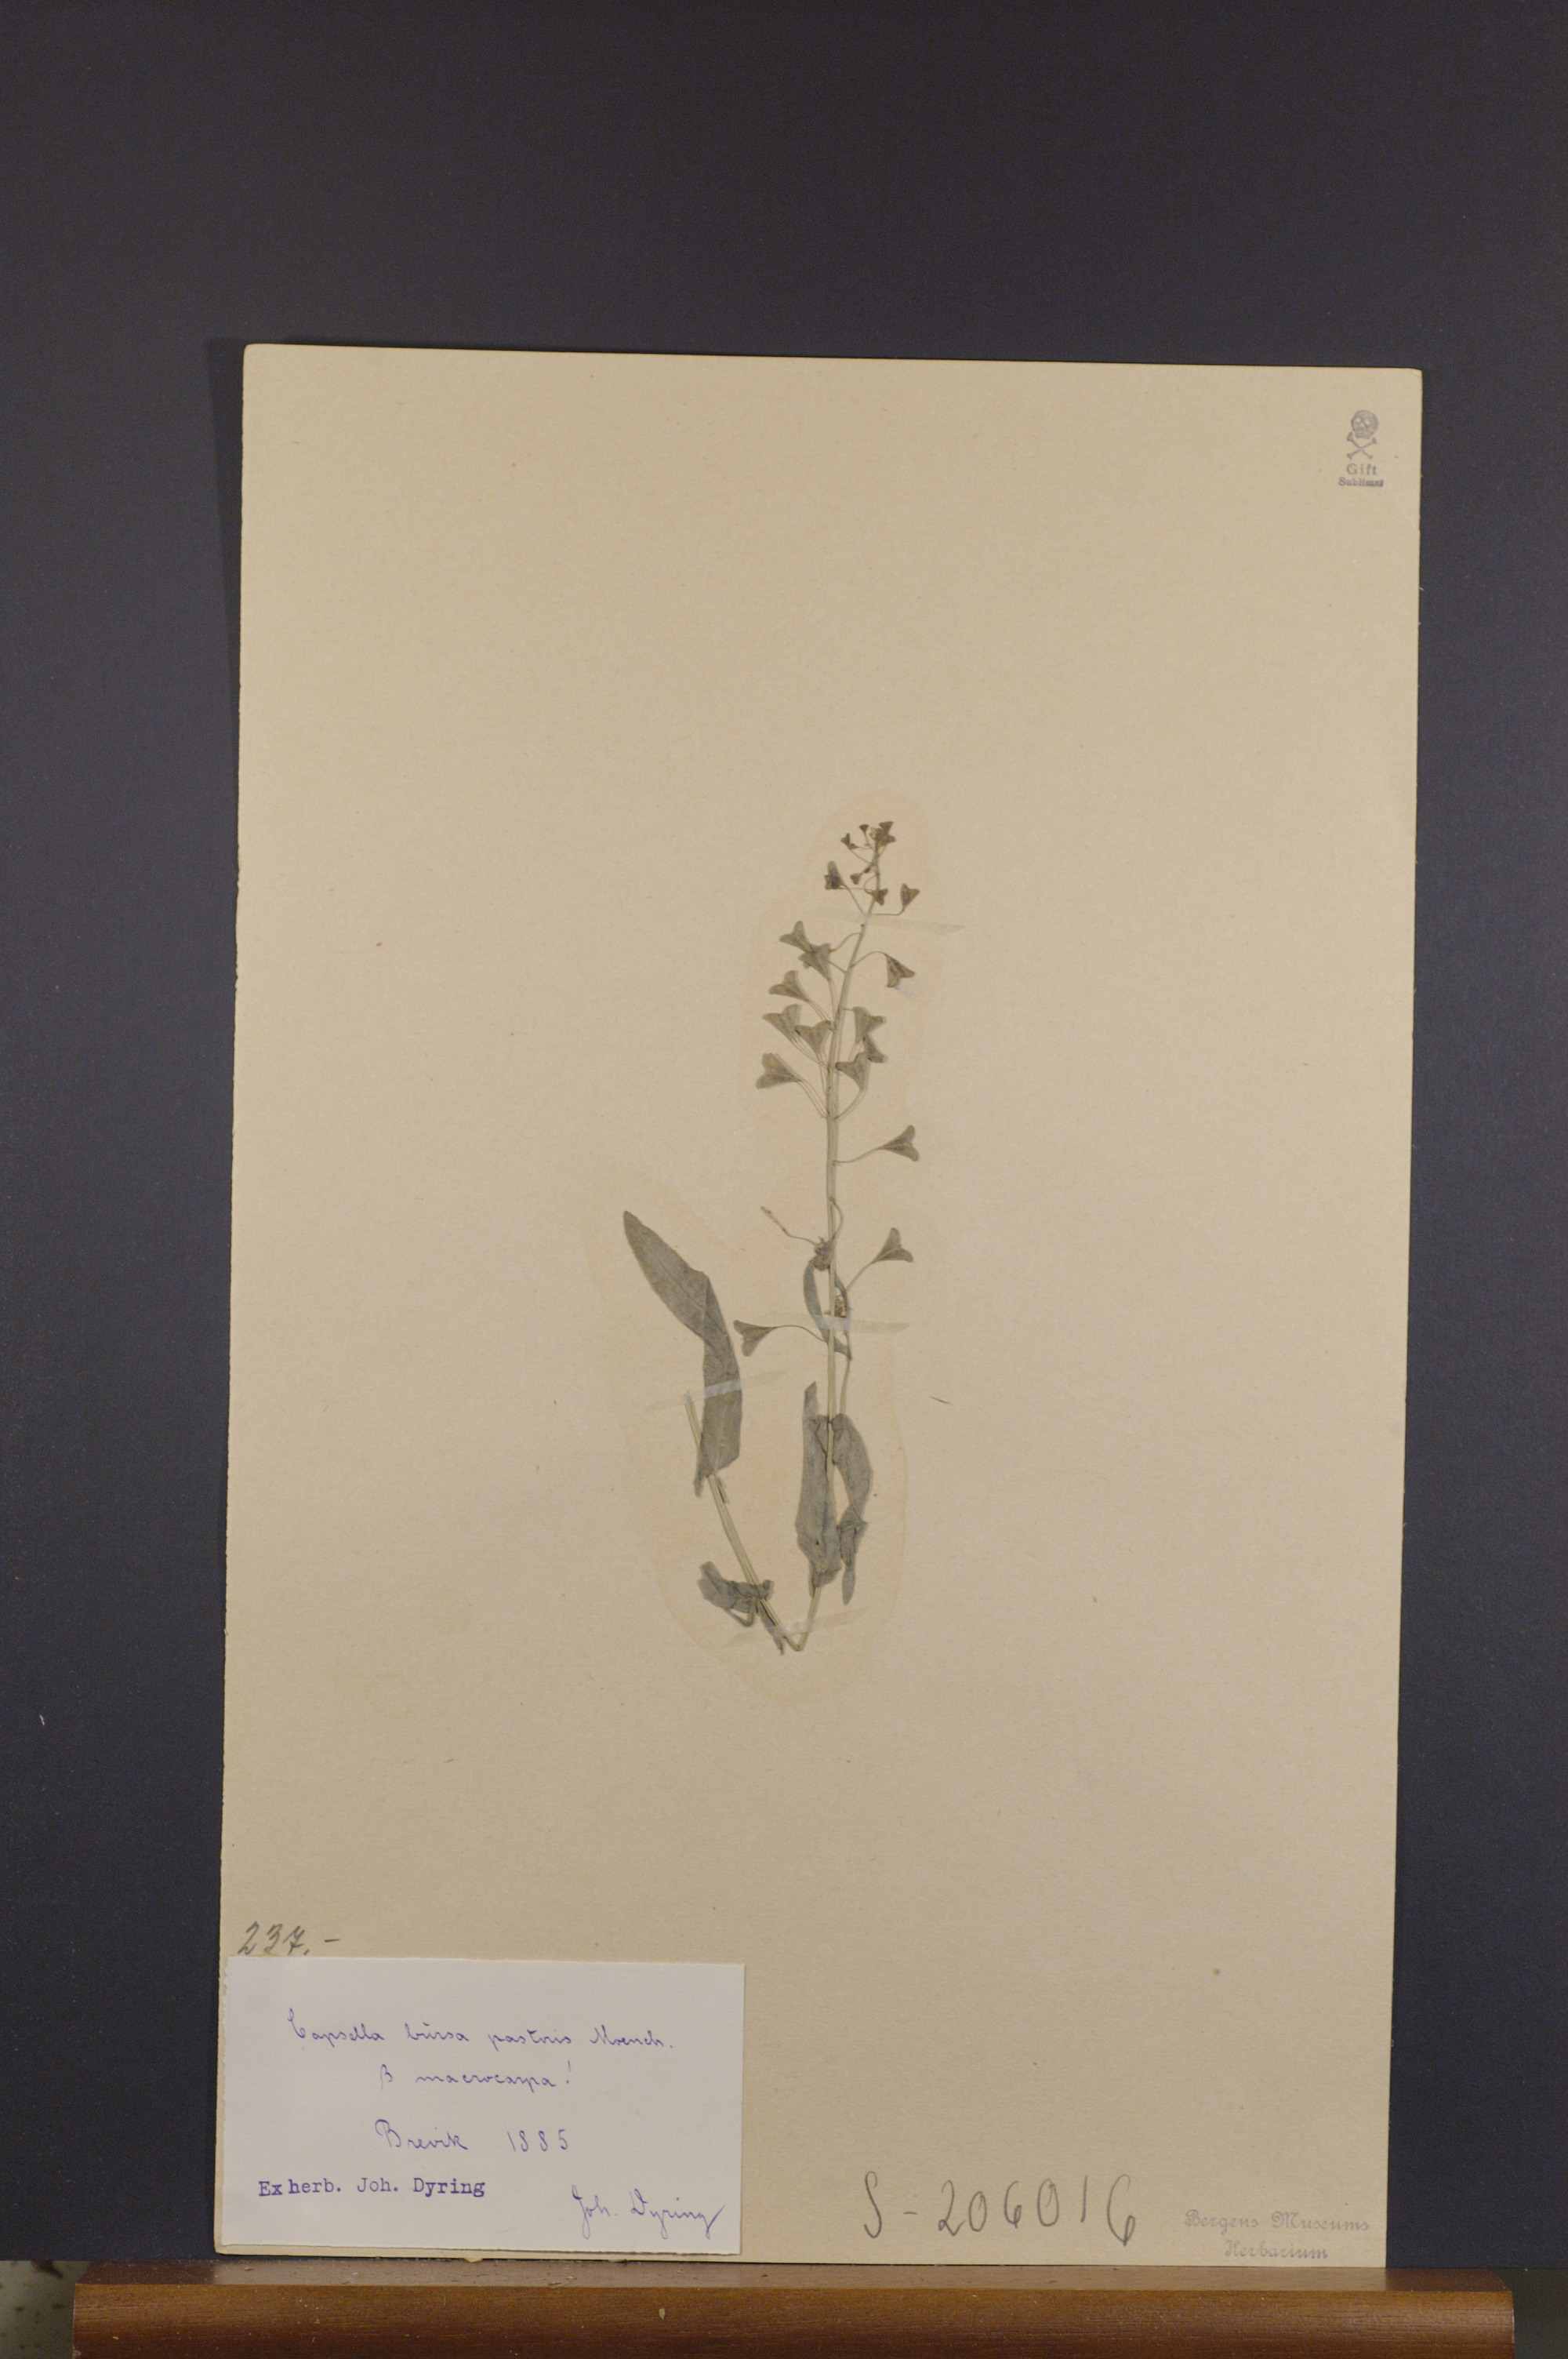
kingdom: Plantae
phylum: Tracheophyta
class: Magnoliopsida
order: Brassicales
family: Brassicaceae
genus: Capsella
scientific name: Capsella bursa-pastoris
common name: Shepherd's purse
